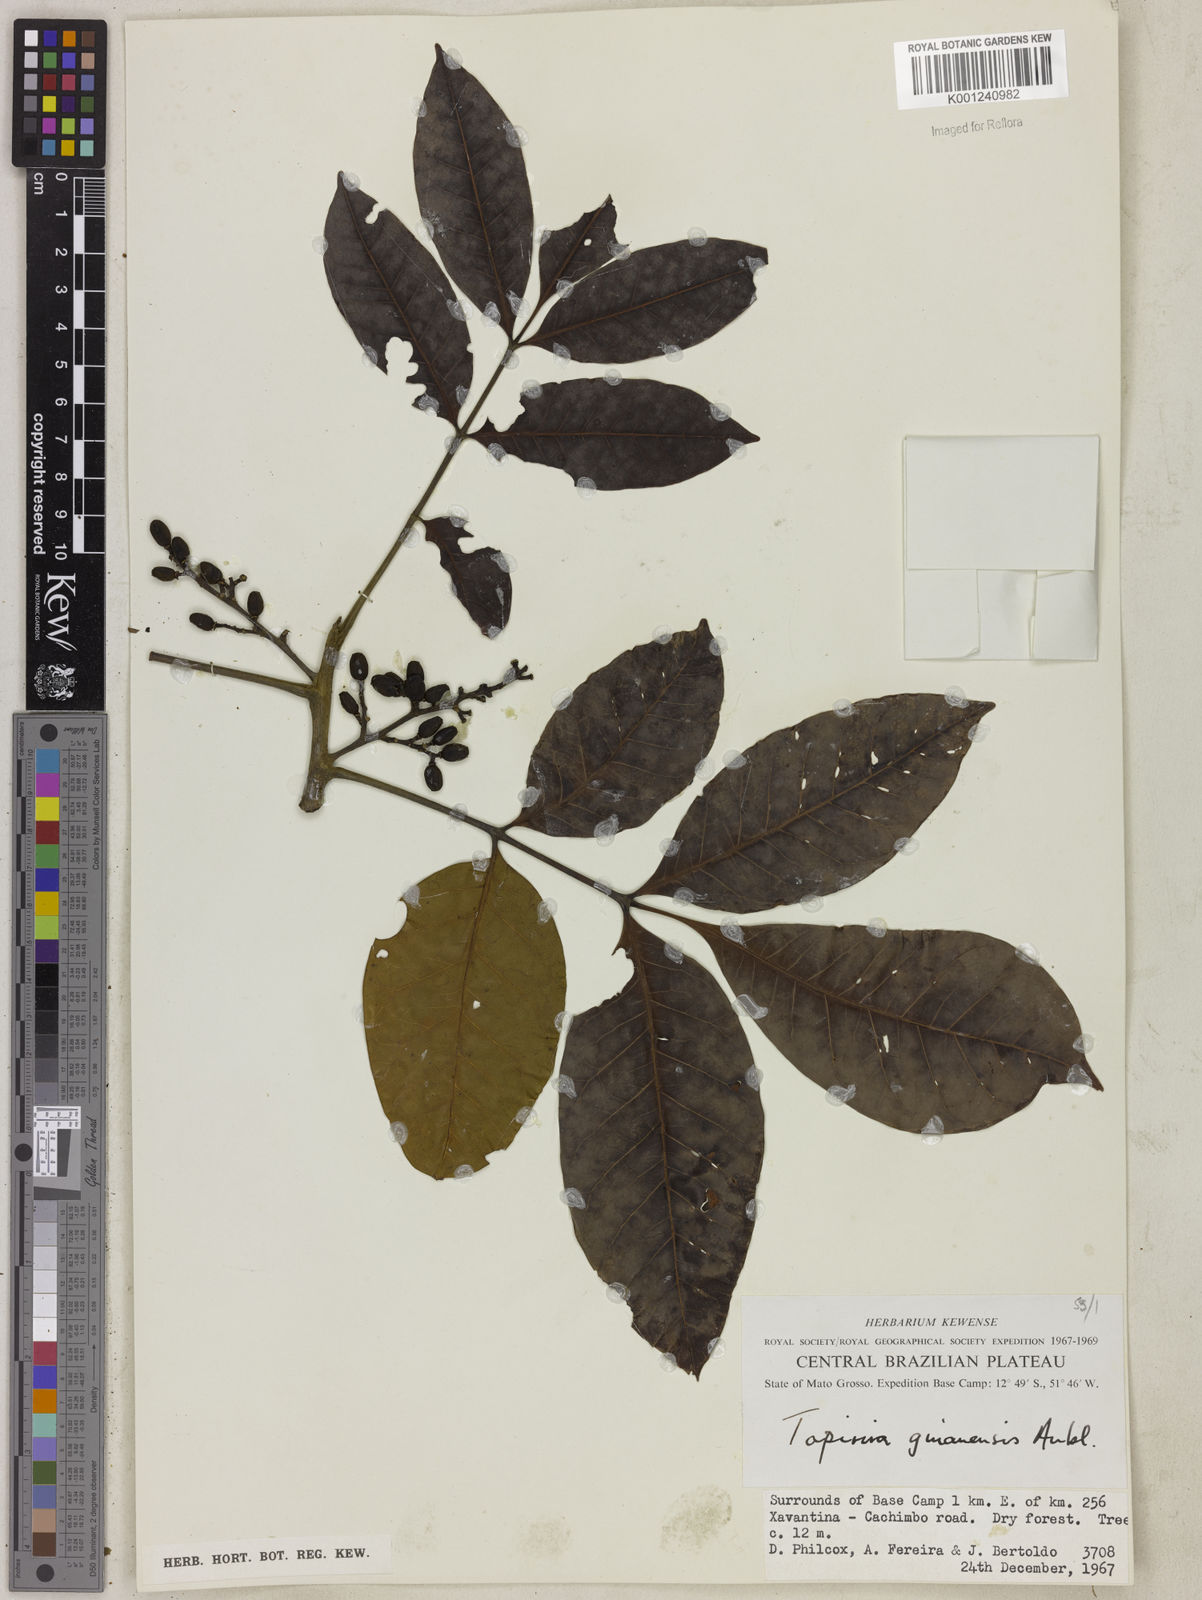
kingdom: Plantae
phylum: Tracheophyta
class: Magnoliopsida
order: Sapindales
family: Anacardiaceae
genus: Tapirira
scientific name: Tapirira guianensis
